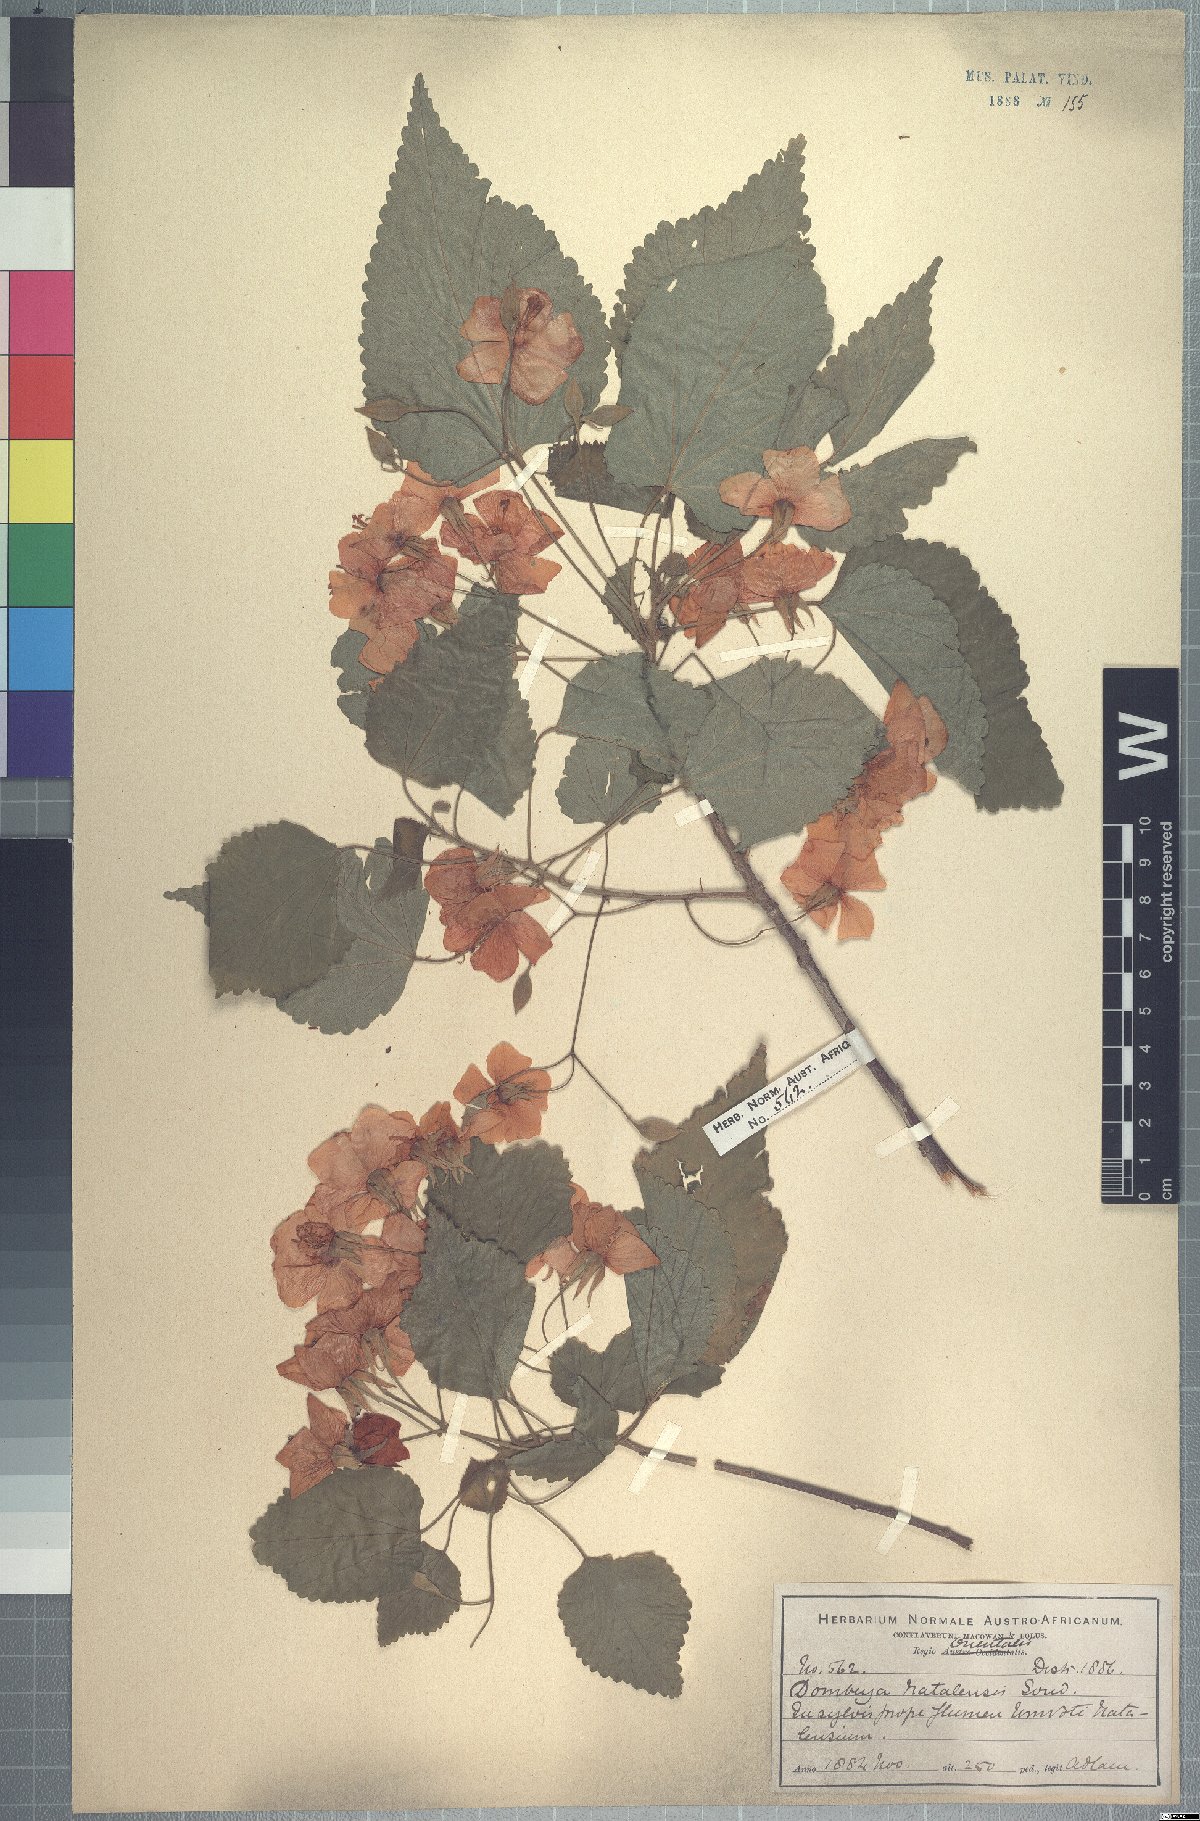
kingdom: Plantae
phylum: Tracheophyta
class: Magnoliopsida
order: Malvales
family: Malvaceae
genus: Dombeya
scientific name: Dombeya tiliacea
